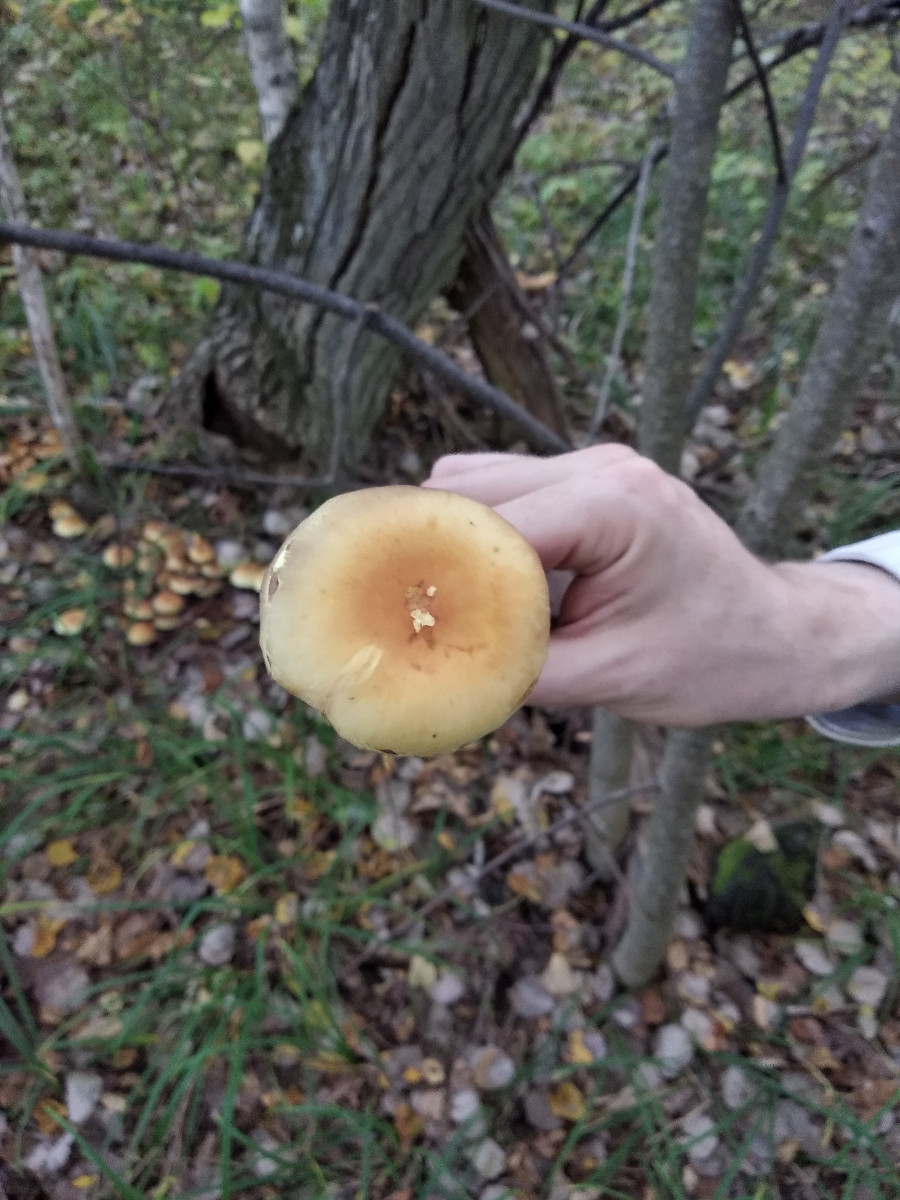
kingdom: Fungi
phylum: Basidiomycota
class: Agaricomycetes
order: Agaricales
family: Strophariaceae
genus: Hypholoma
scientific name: Hypholoma fasciculare
